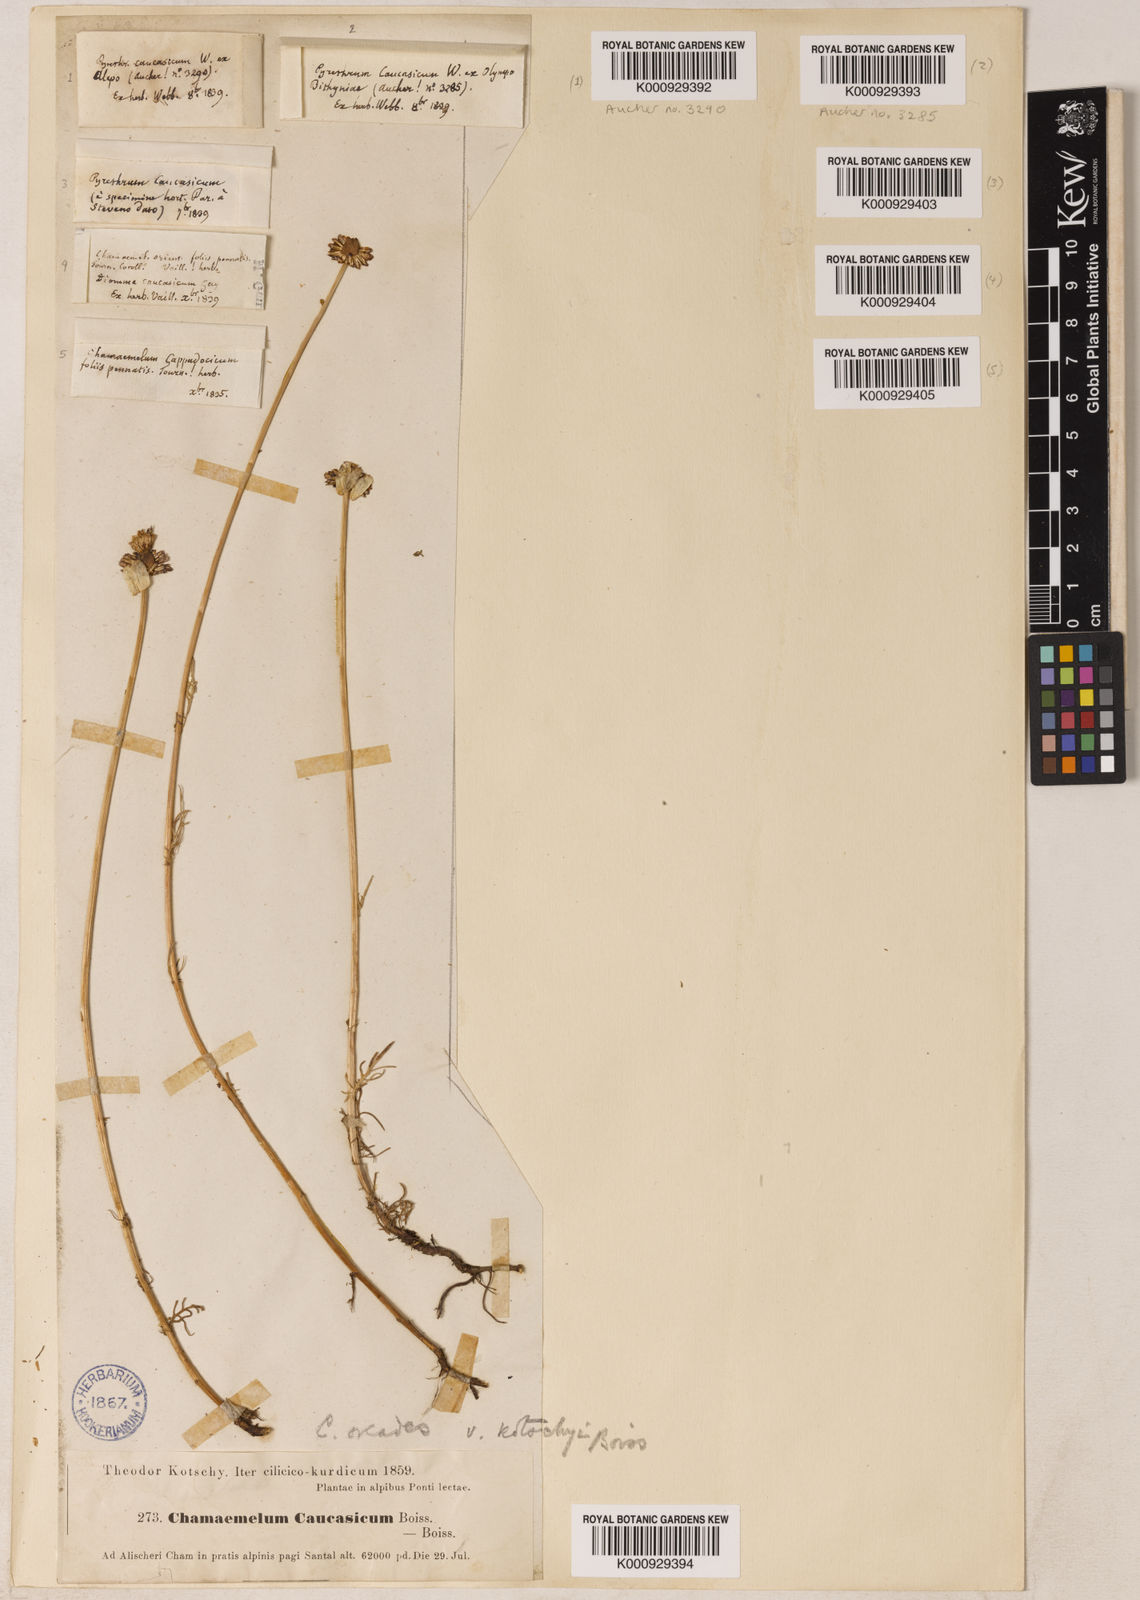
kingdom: Plantae
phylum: Tracheophyta
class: Magnoliopsida
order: Asterales
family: Asteraceae
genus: Tripleurospermum
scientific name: Tripleurospermum caucasicum
